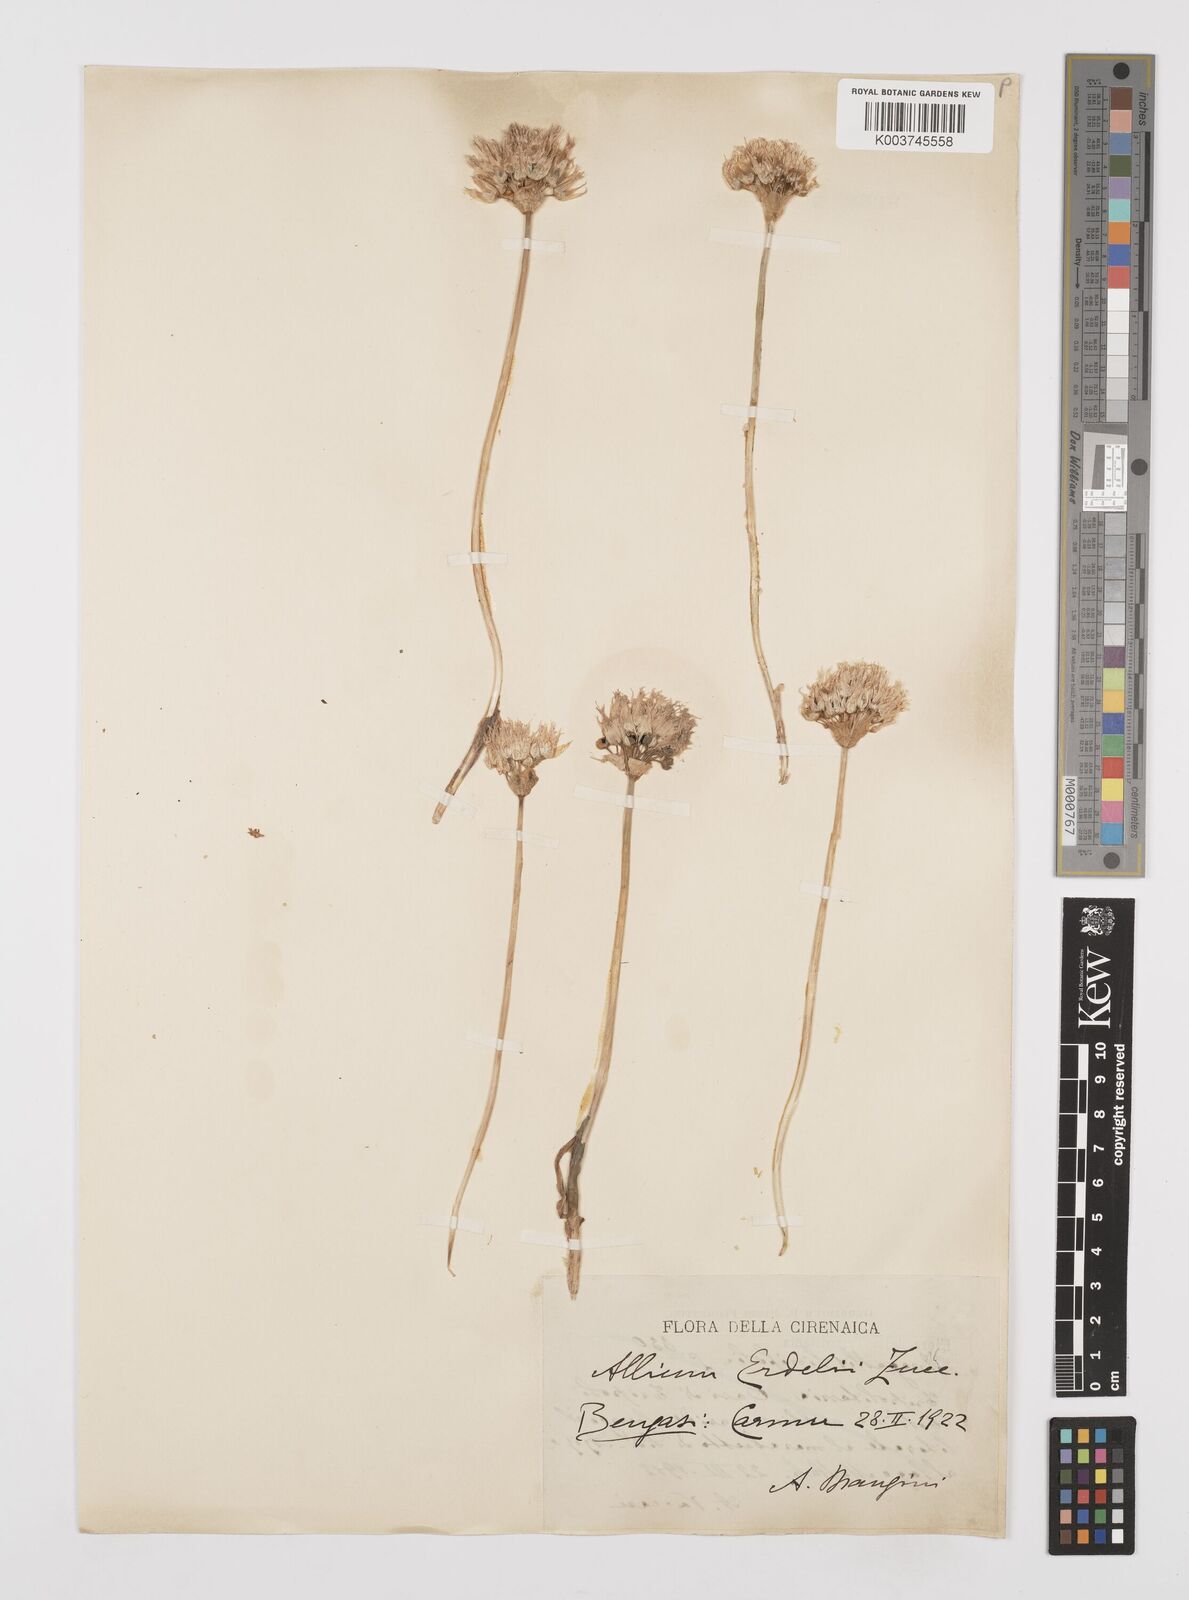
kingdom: Plantae
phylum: Tracheophyta
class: Liliopsida
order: Asparagales
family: Amaryllidaceae
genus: Allium
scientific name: Allium erdelii
